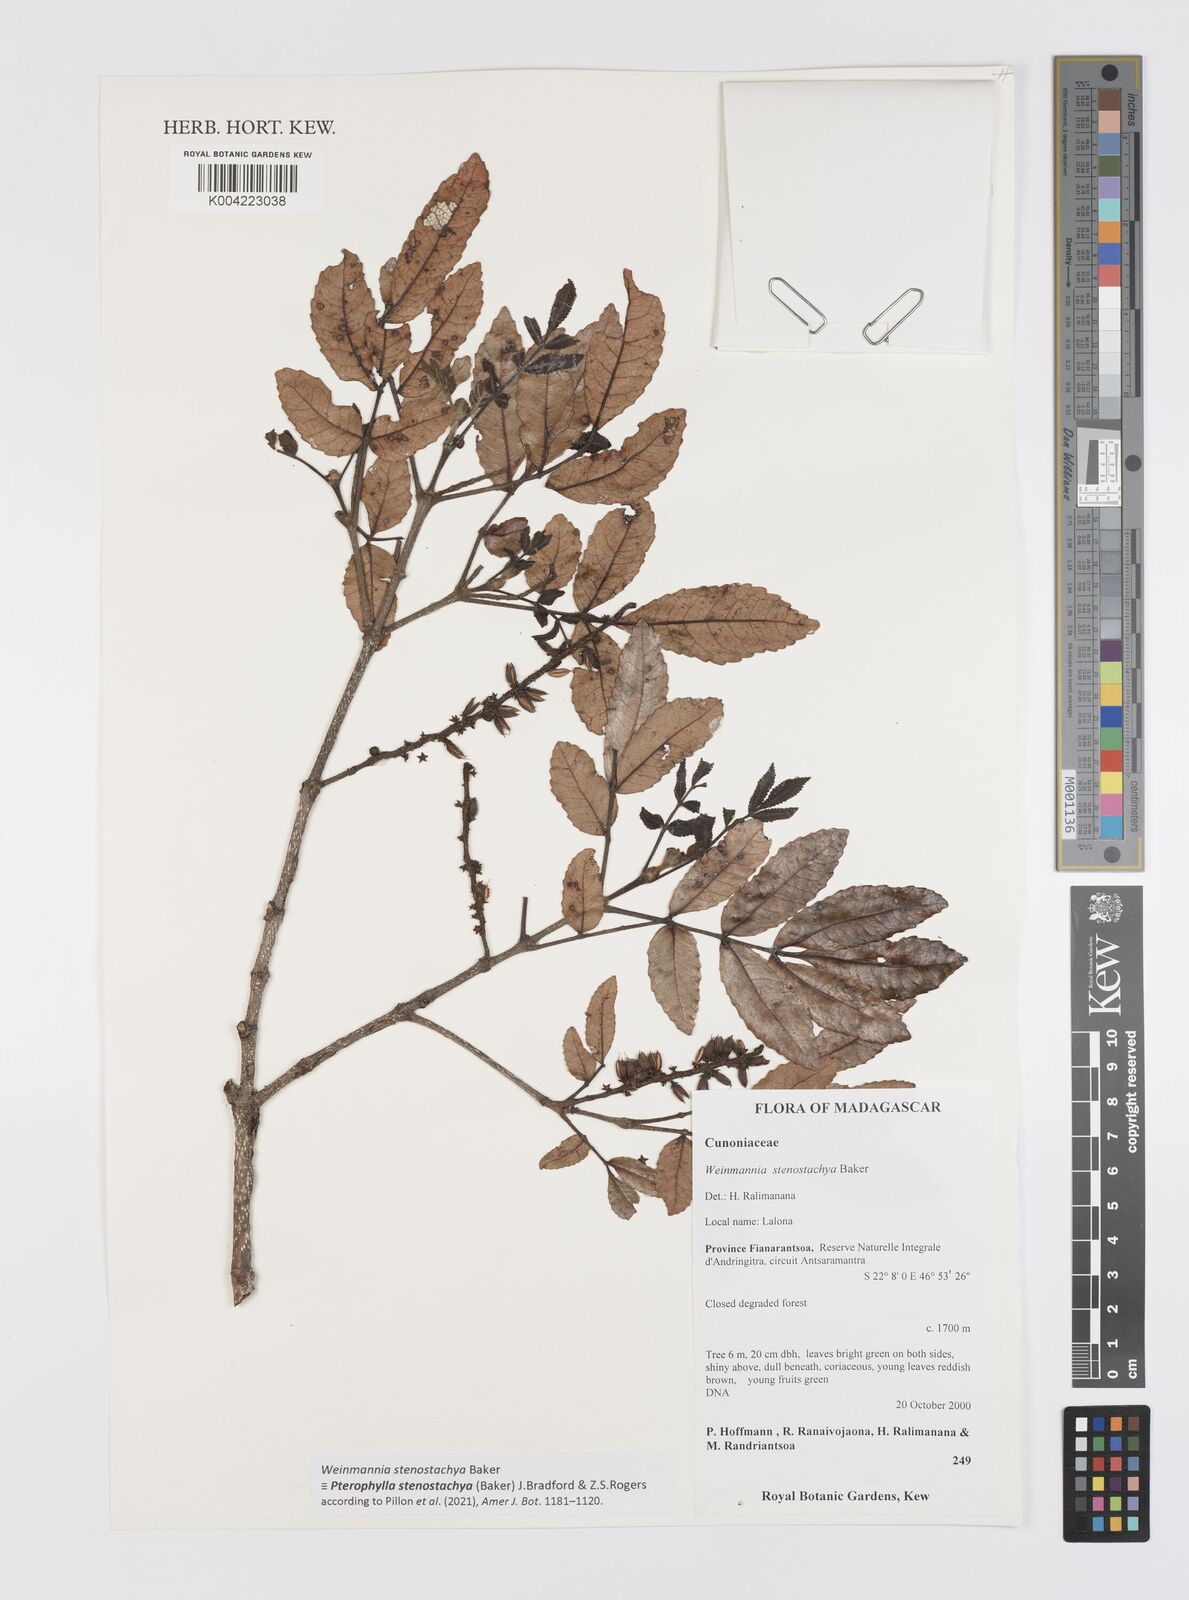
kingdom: Plantae
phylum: Tracheophyta
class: Magnoliopsida
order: Oxalidales
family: Cunoniaceae
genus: Pterophylla
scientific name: Pterophylla stenostachya
